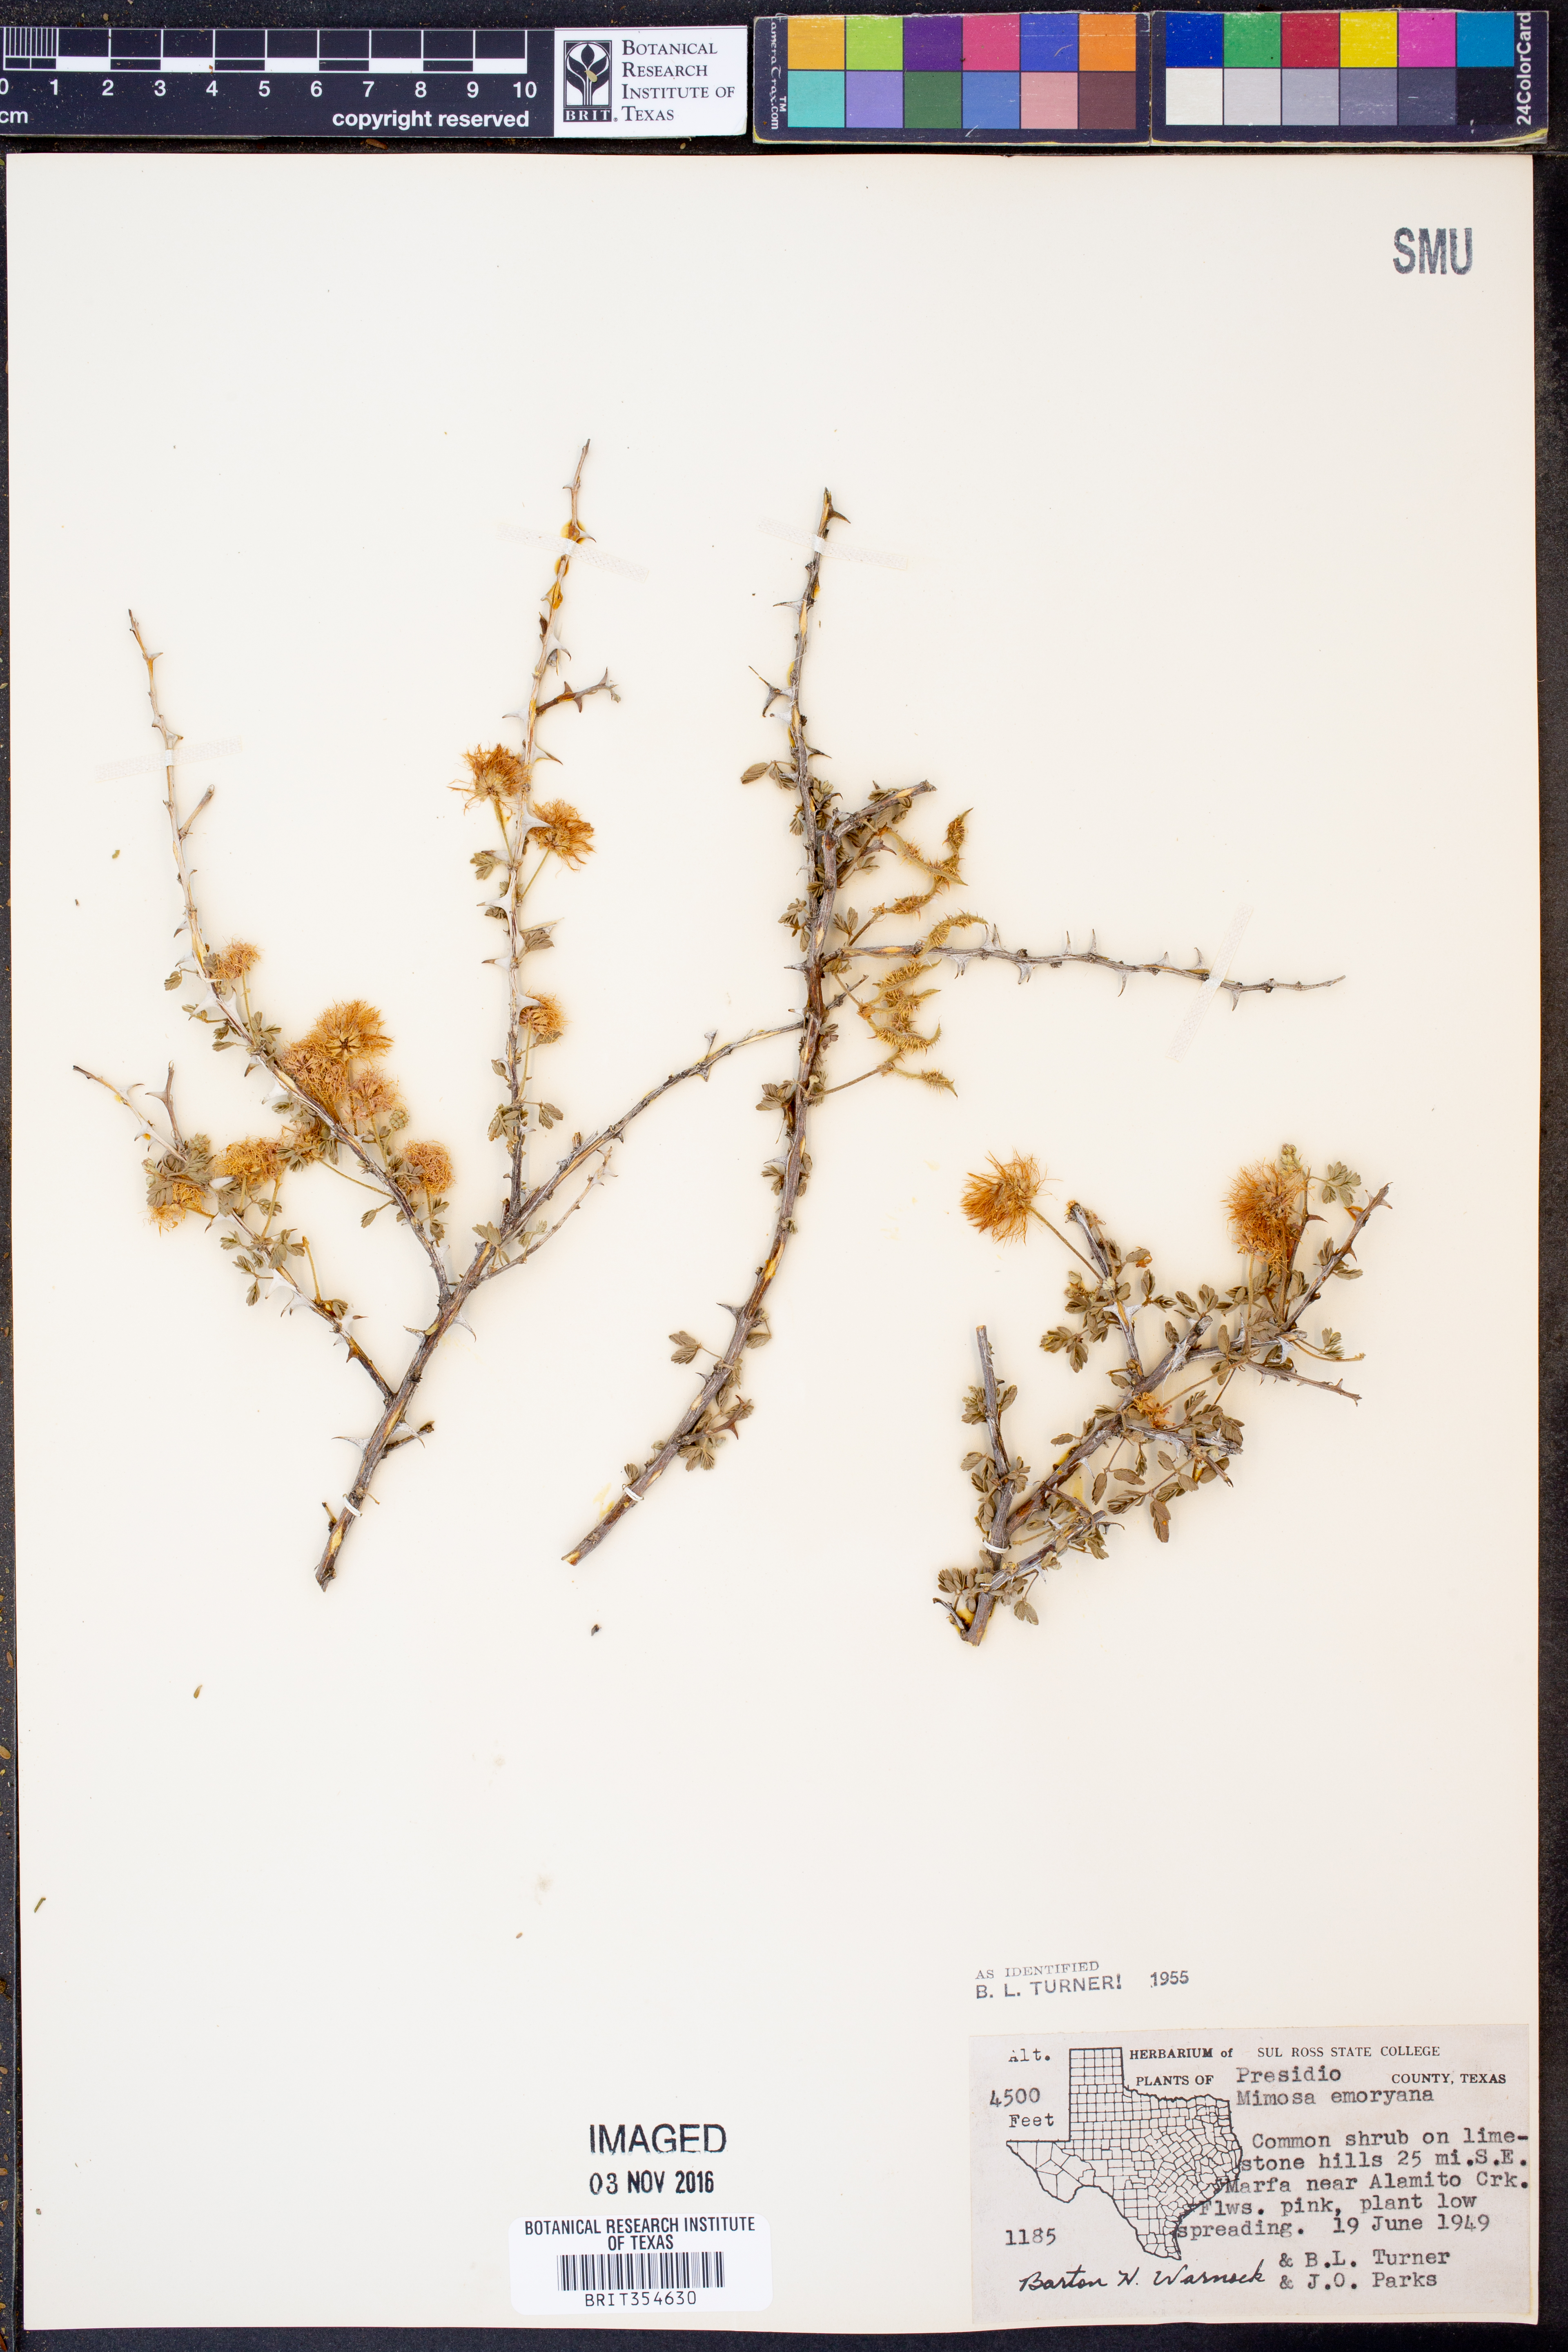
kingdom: Plantae
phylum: Tracheophyta
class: Magnoliopsida
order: Fabales
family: Fabaceae
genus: Mimosa
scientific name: Mimosa emoryana
